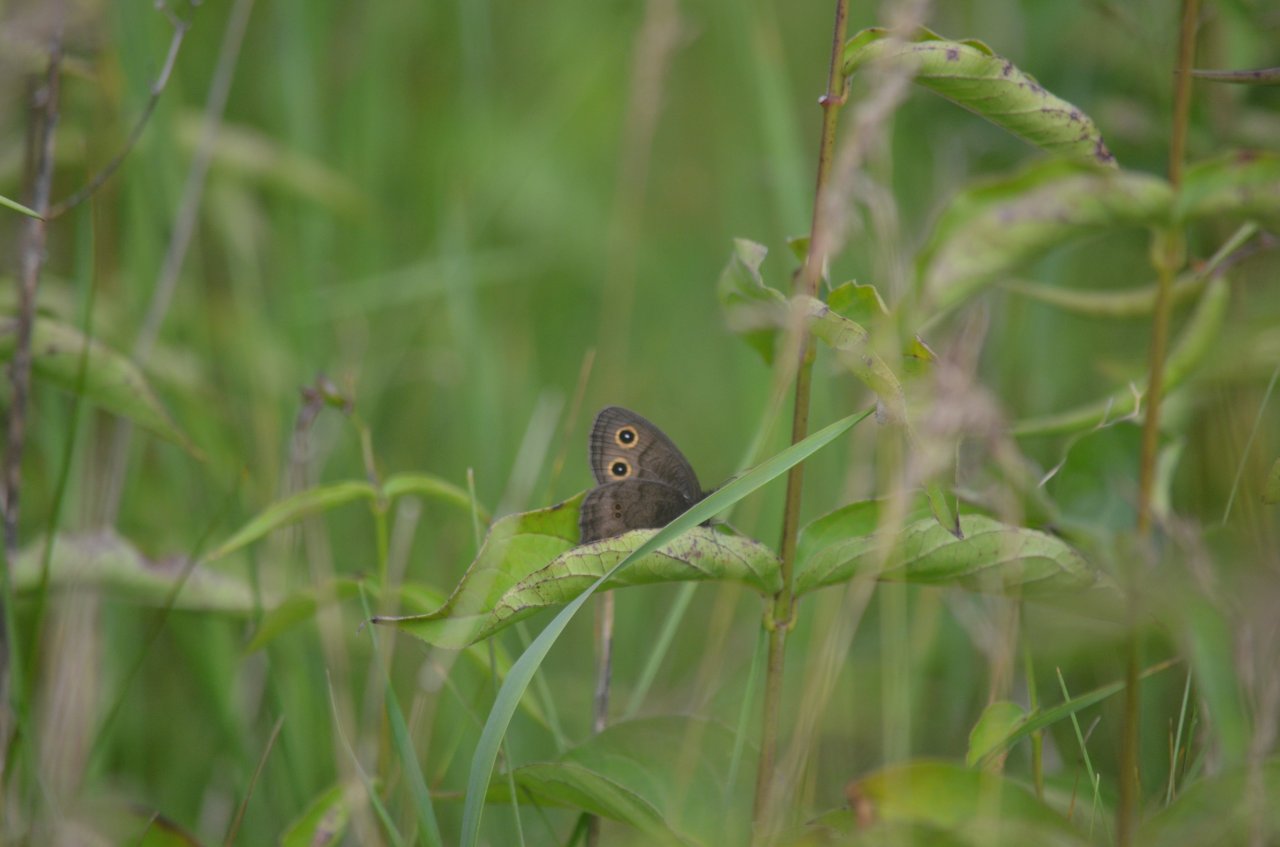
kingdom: Animalia
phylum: Arthropoda
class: Insecta
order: Lepidoptera
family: Nymphalidae
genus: Cercyonis
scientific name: Cercyonis pegala
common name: Common Wood-Nymph
